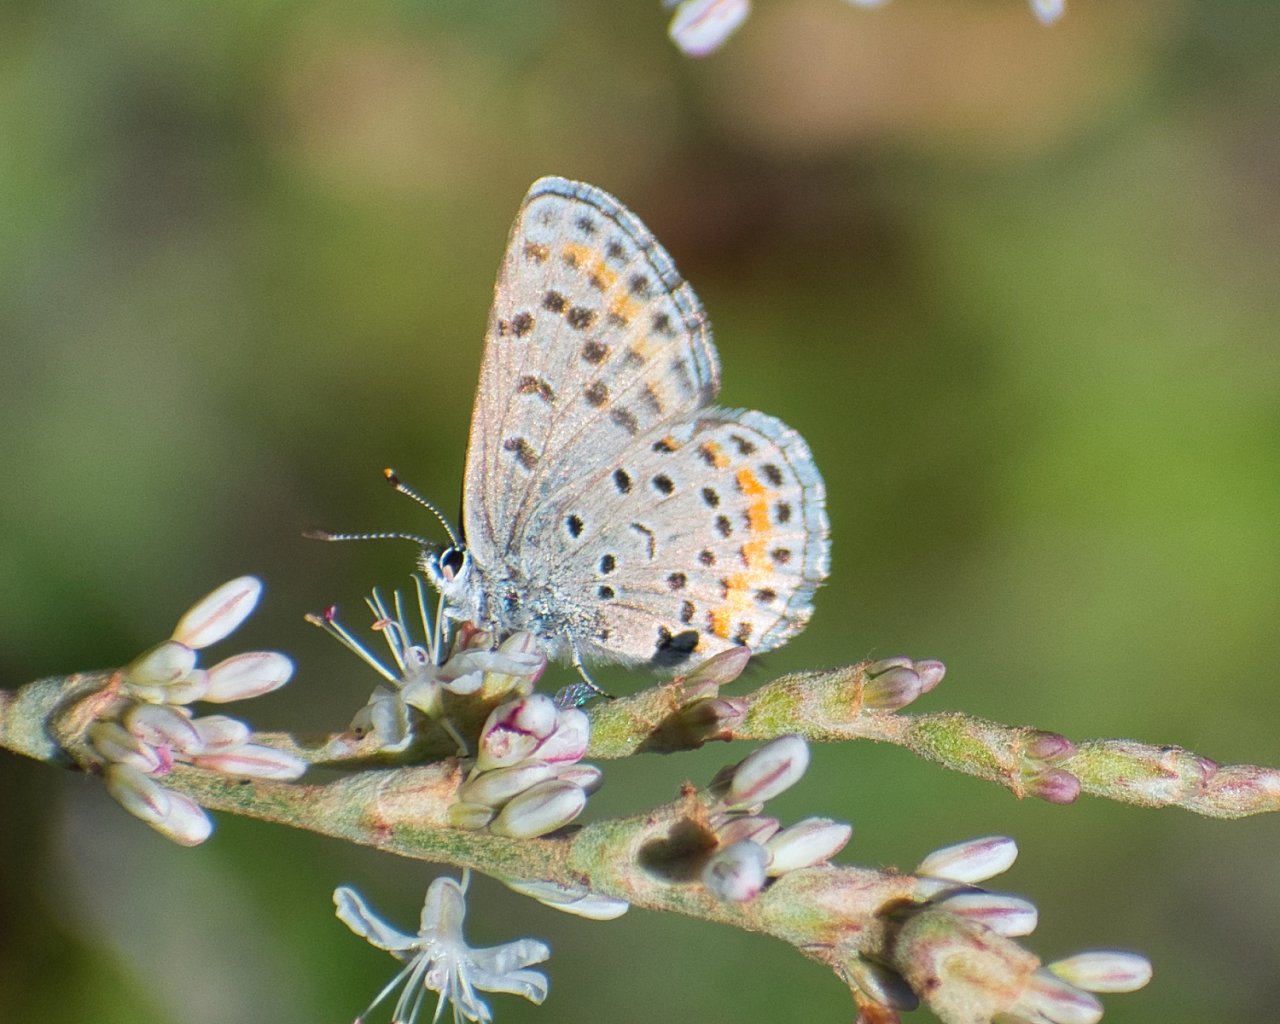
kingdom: Animalia
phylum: Arthropoda
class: Insecta
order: Lepidoptera
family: Lycaenidae
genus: Euphilotes
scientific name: Euphilotes spaldingi
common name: Spalding's Blue
